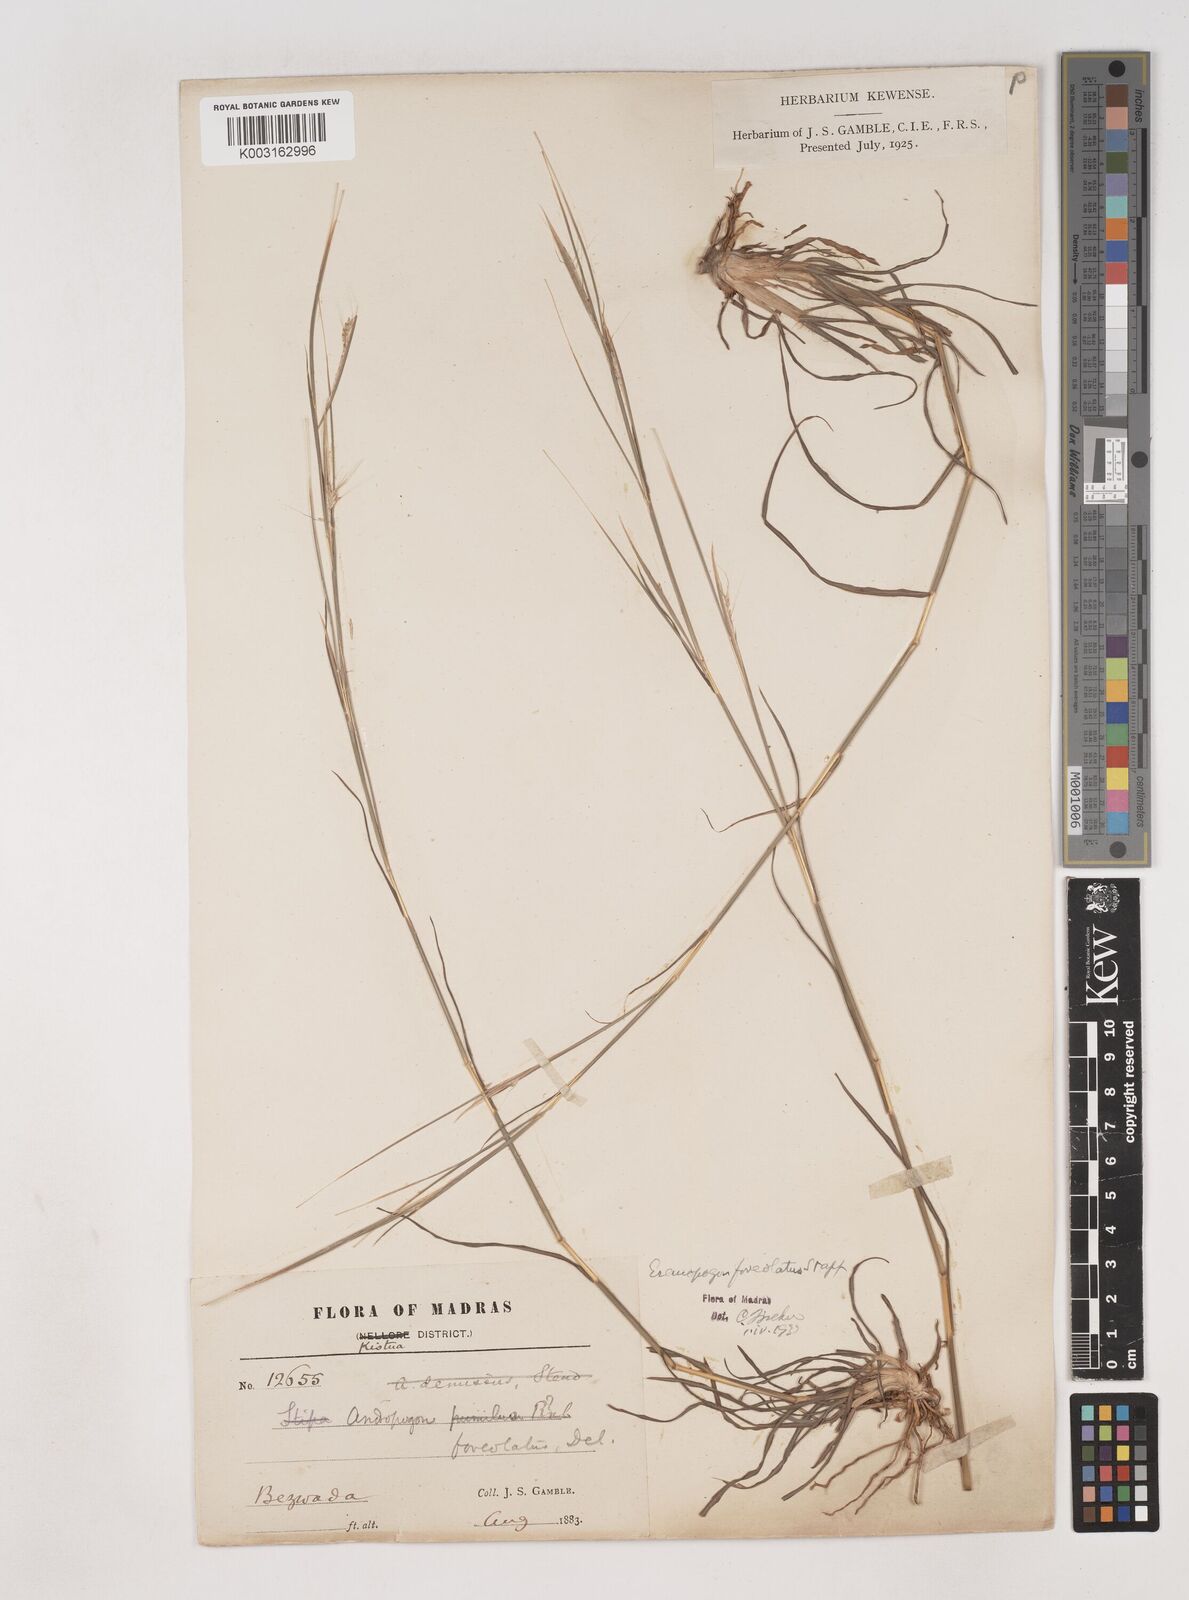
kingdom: Plantae
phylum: Tracheophyta
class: Liliopsida
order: Poales
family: Poaceae
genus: Dichanthium
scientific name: Dichanthium foveolatum
